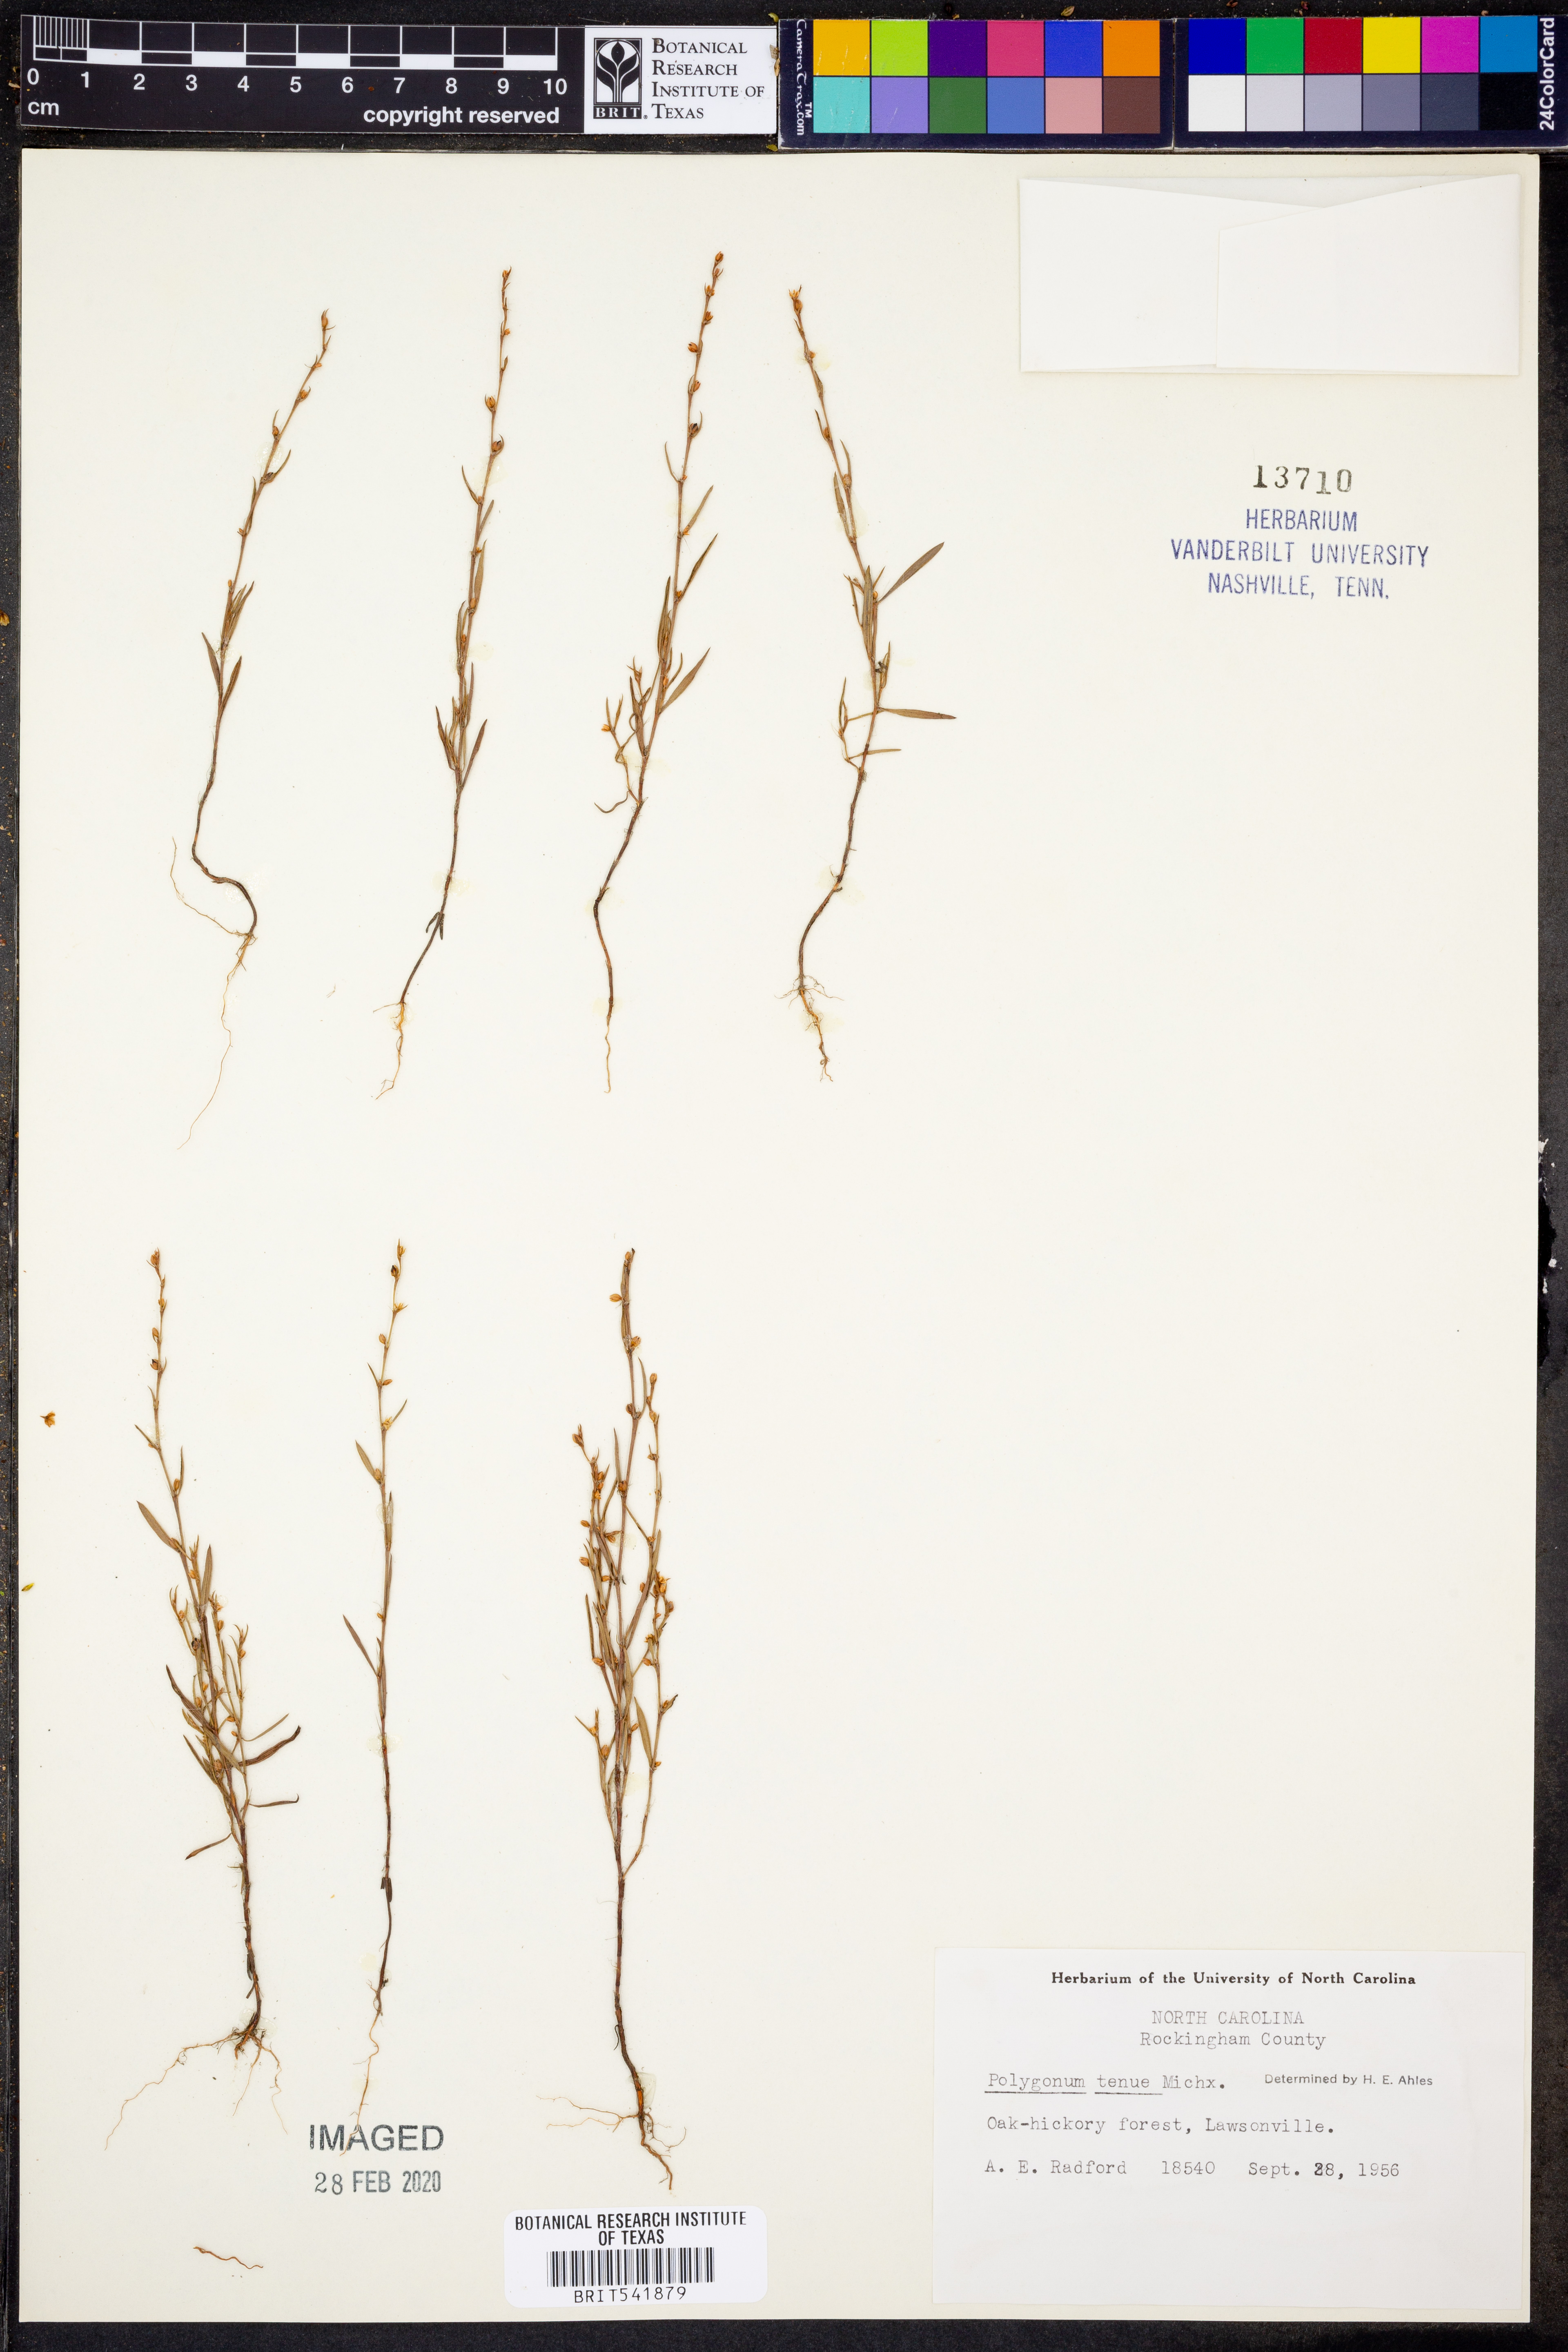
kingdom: Plantae
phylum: Tracheophyta
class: Magnoliopsida
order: Caryophyllales
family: Polygonaceae
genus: Polygonum
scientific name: Polygonum tenue
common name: Pleat-leaved knotweed
